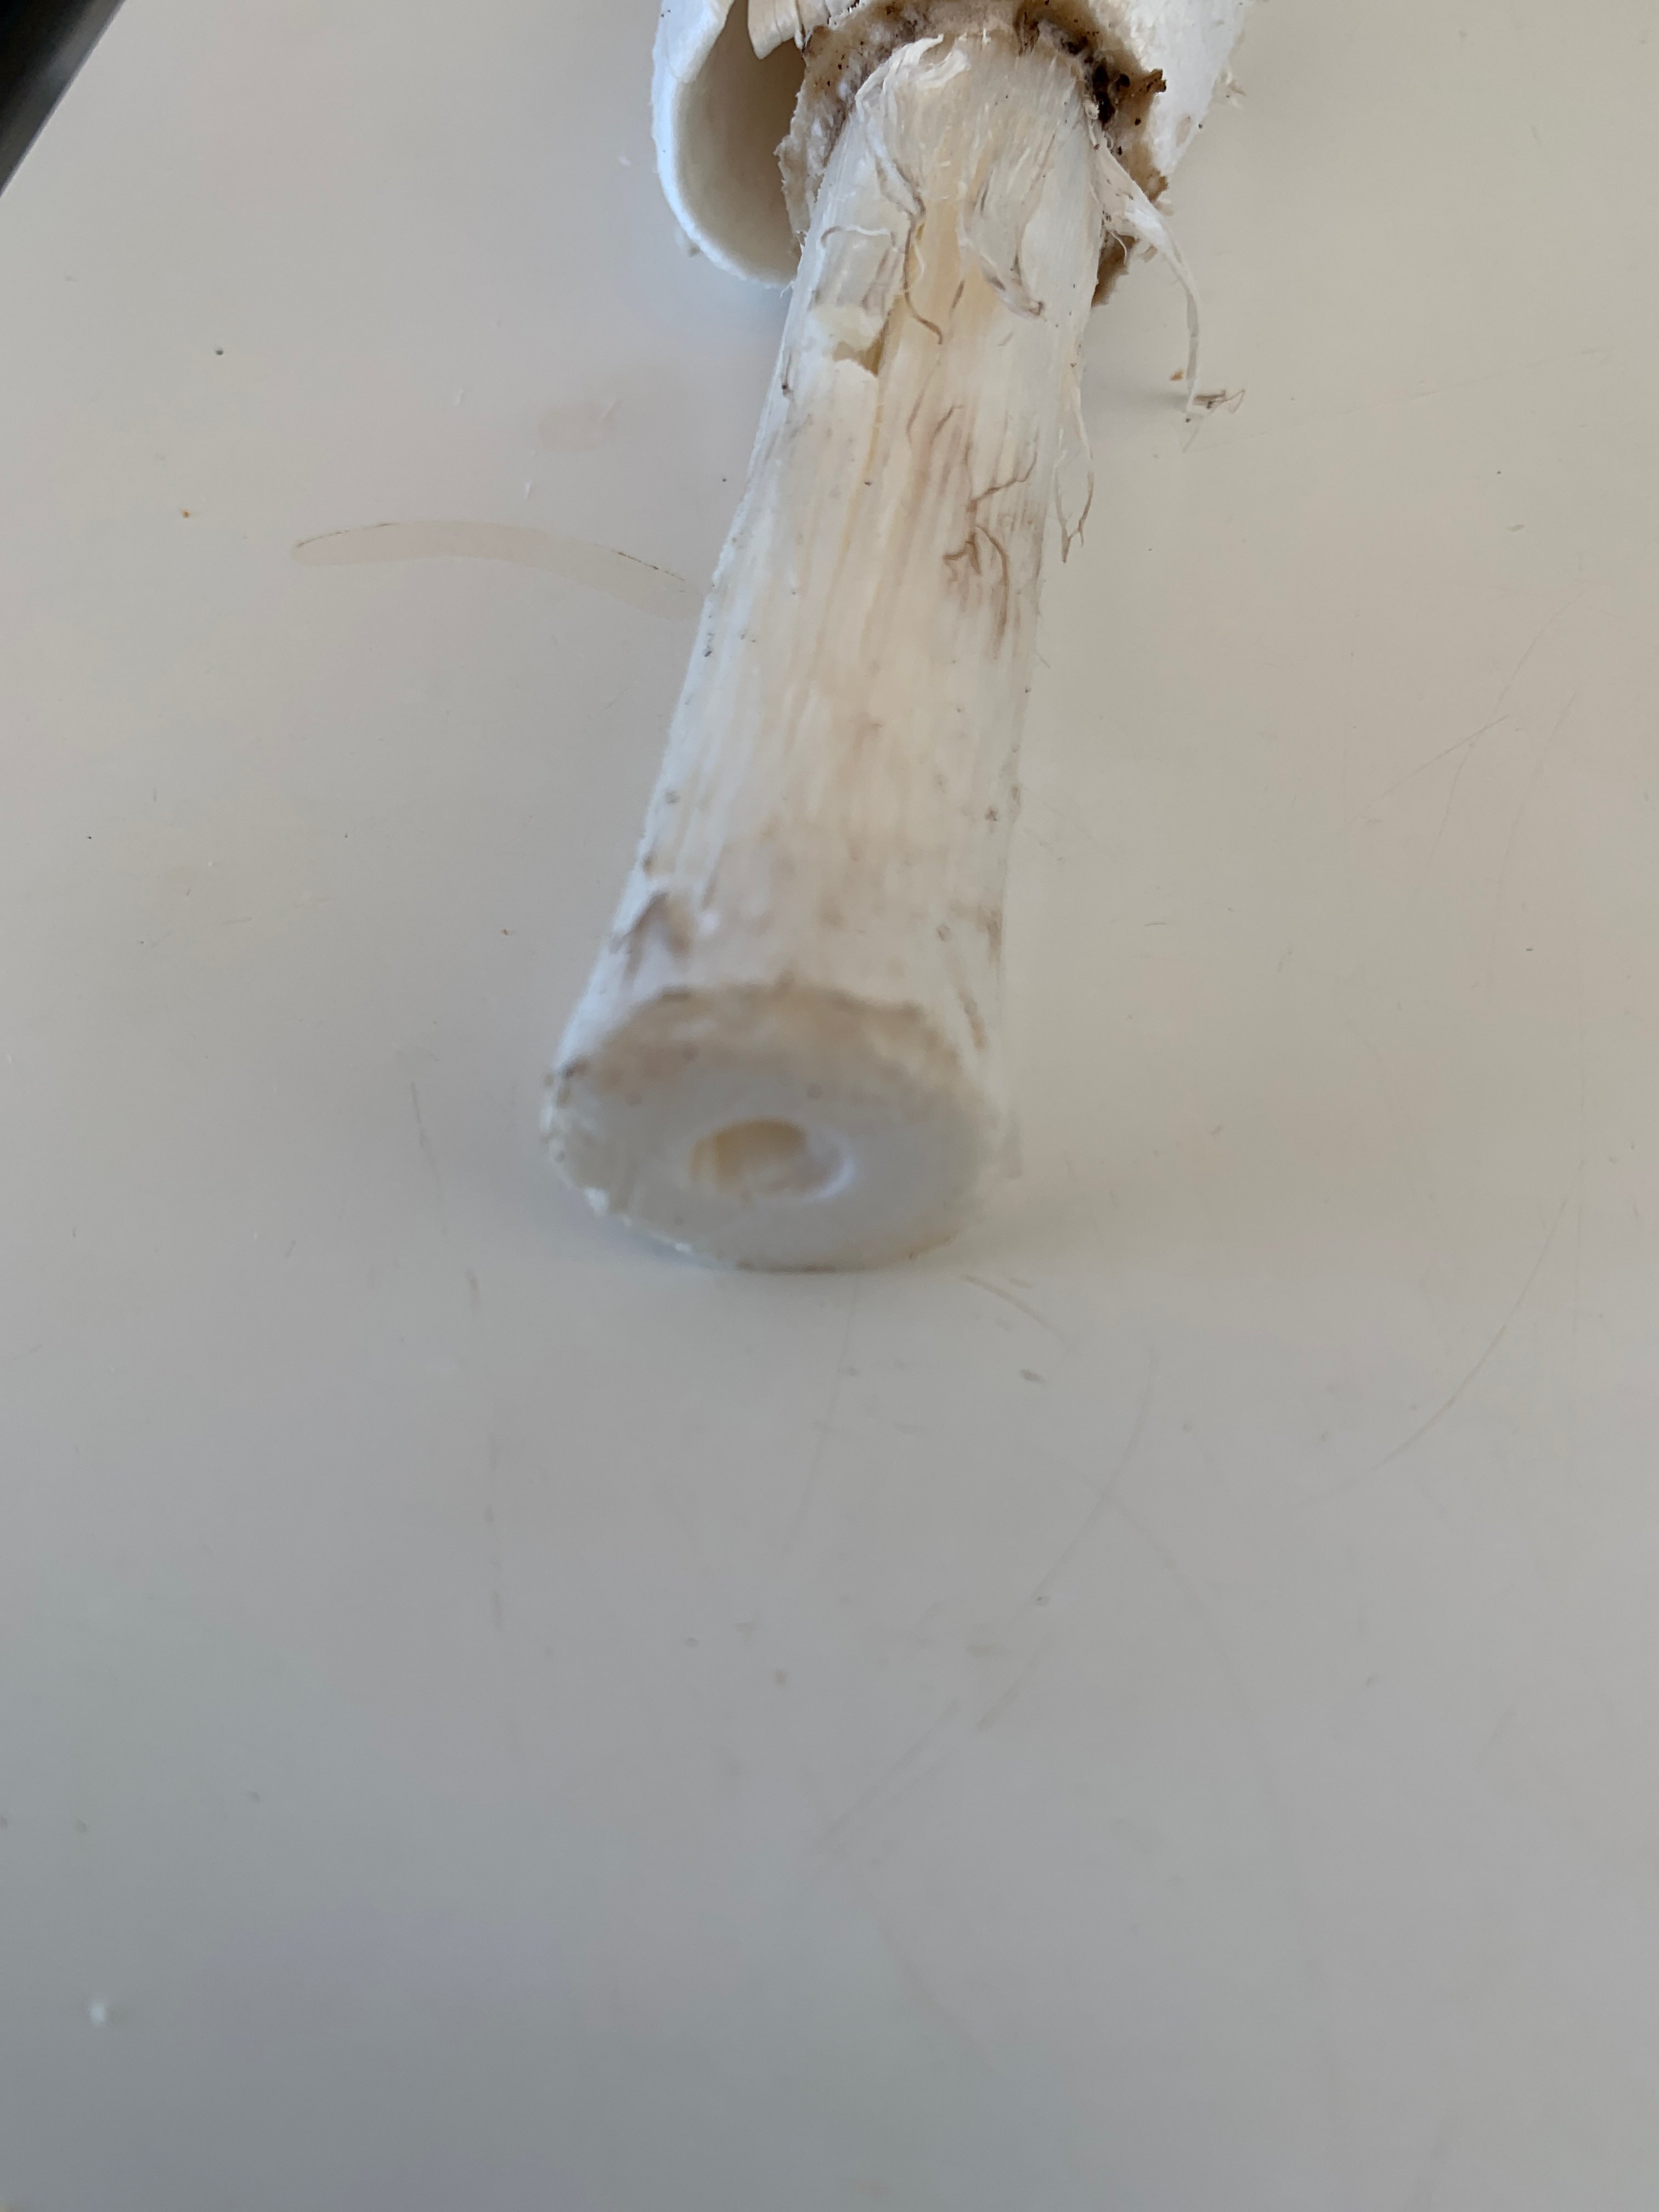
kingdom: Fungi
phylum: Basidiomycota
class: Agaricomycetes
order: Agaricales
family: Agaricaceae
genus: Coprinus
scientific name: Coprinus comatus
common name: stor parykhat
